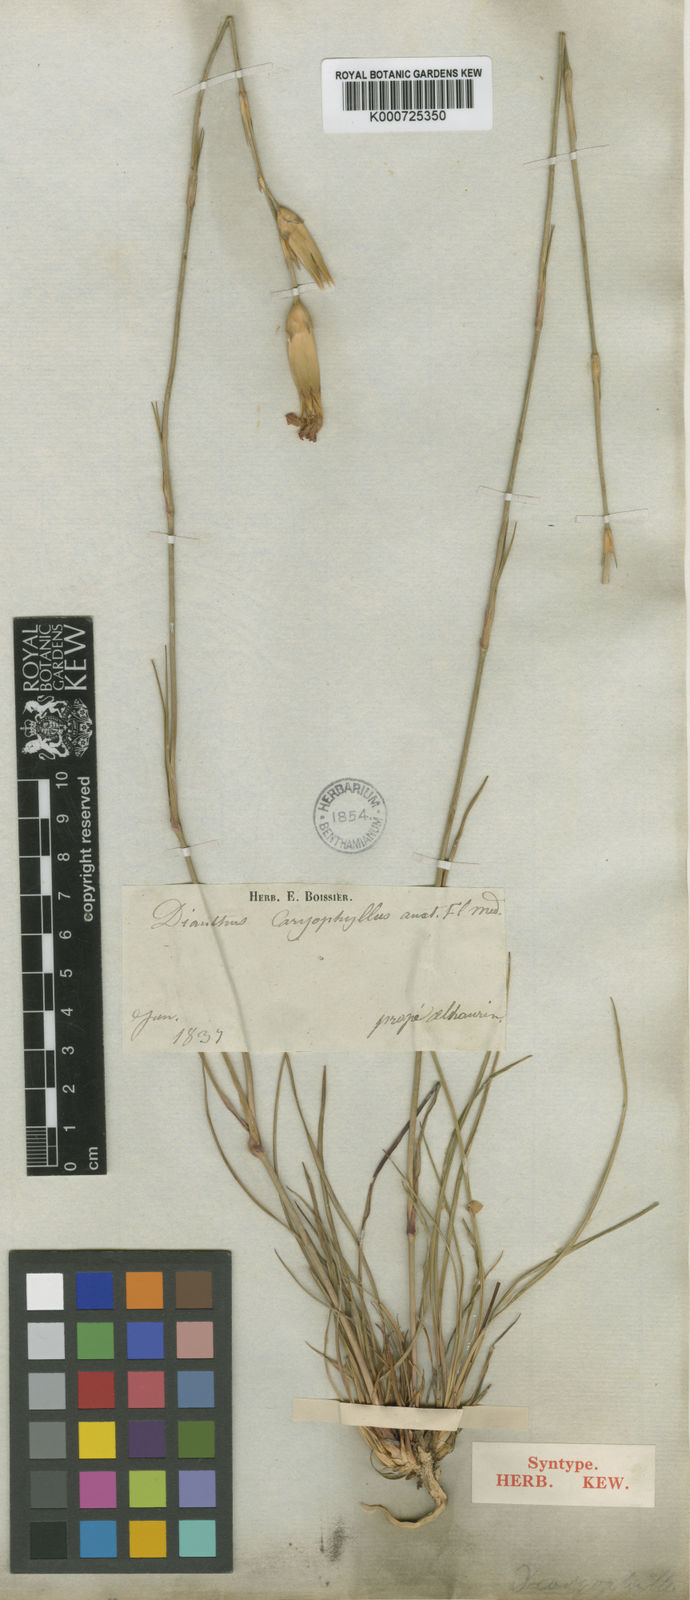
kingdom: Plantae
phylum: Tracheophyta
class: Magnoliopsida
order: Caryophyllales
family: Caryophyllaceae
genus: Dianthus
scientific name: Dianthus sylvestris
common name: Wood pink
